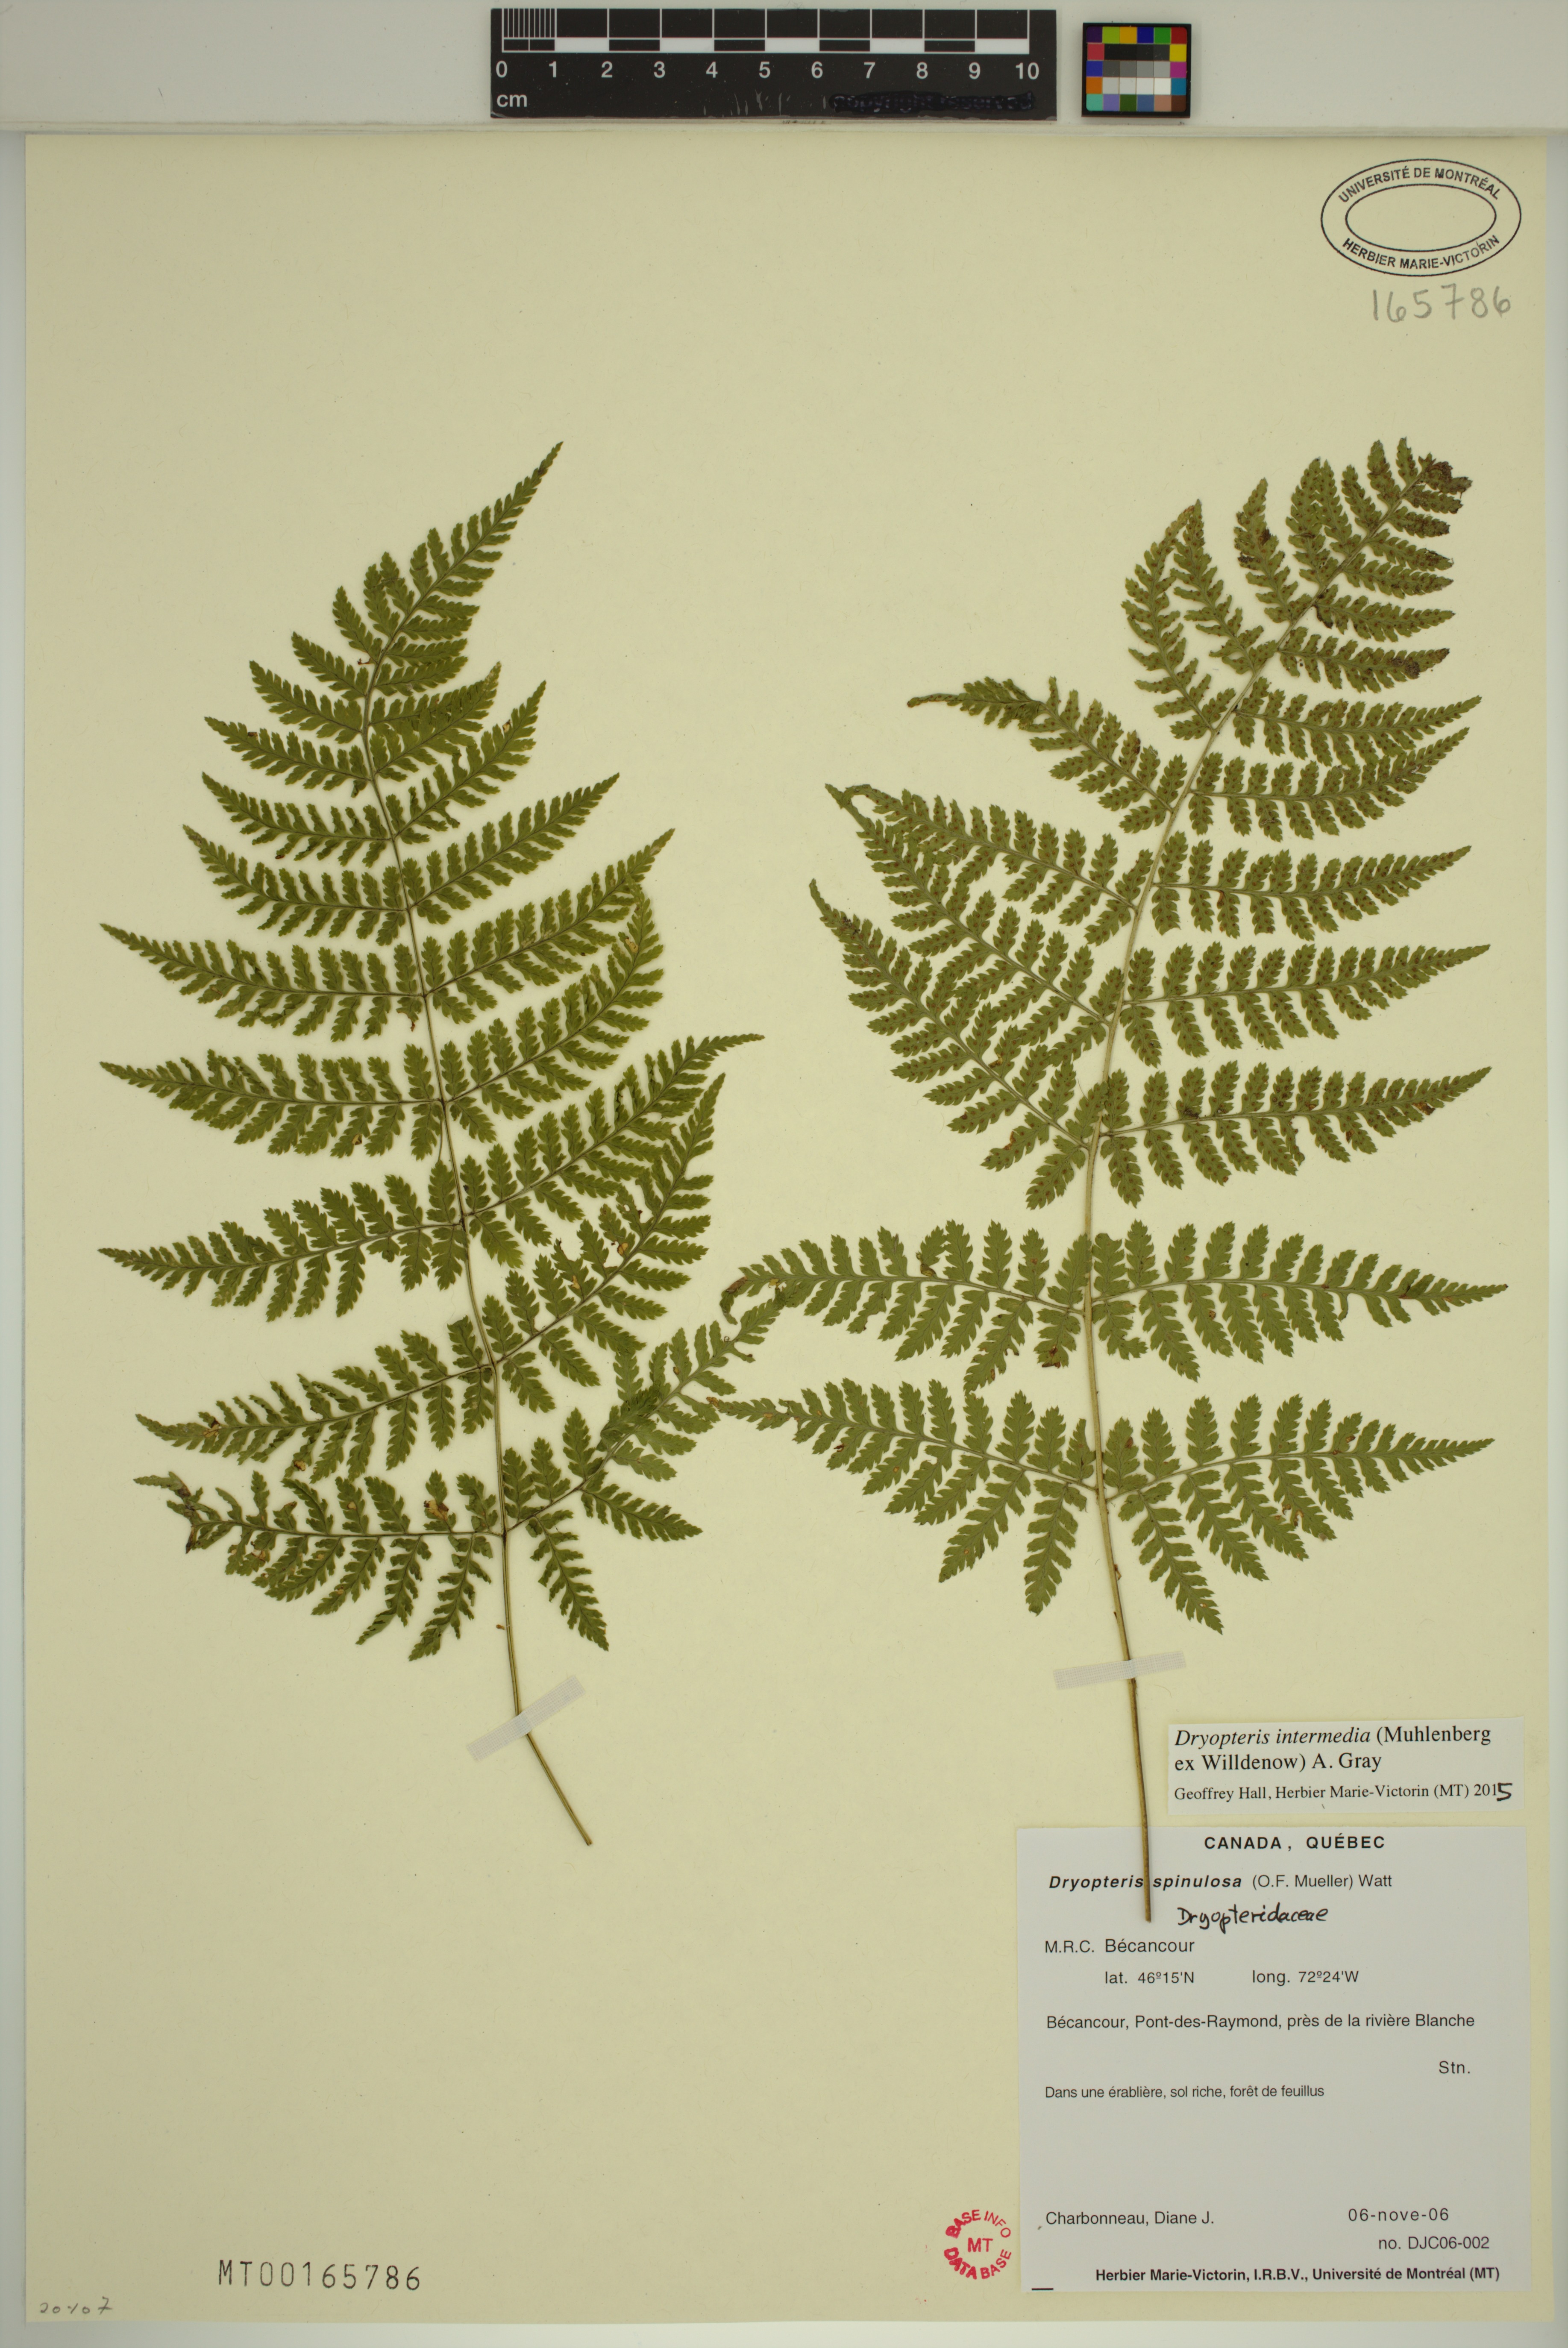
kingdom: Plantae
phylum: Tracheophyta
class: Polypodiopsida
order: Polypodiales
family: Dryopteridaceae
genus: Dryopteris
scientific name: Dryopteris intermedia
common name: Evergreen wood fern
